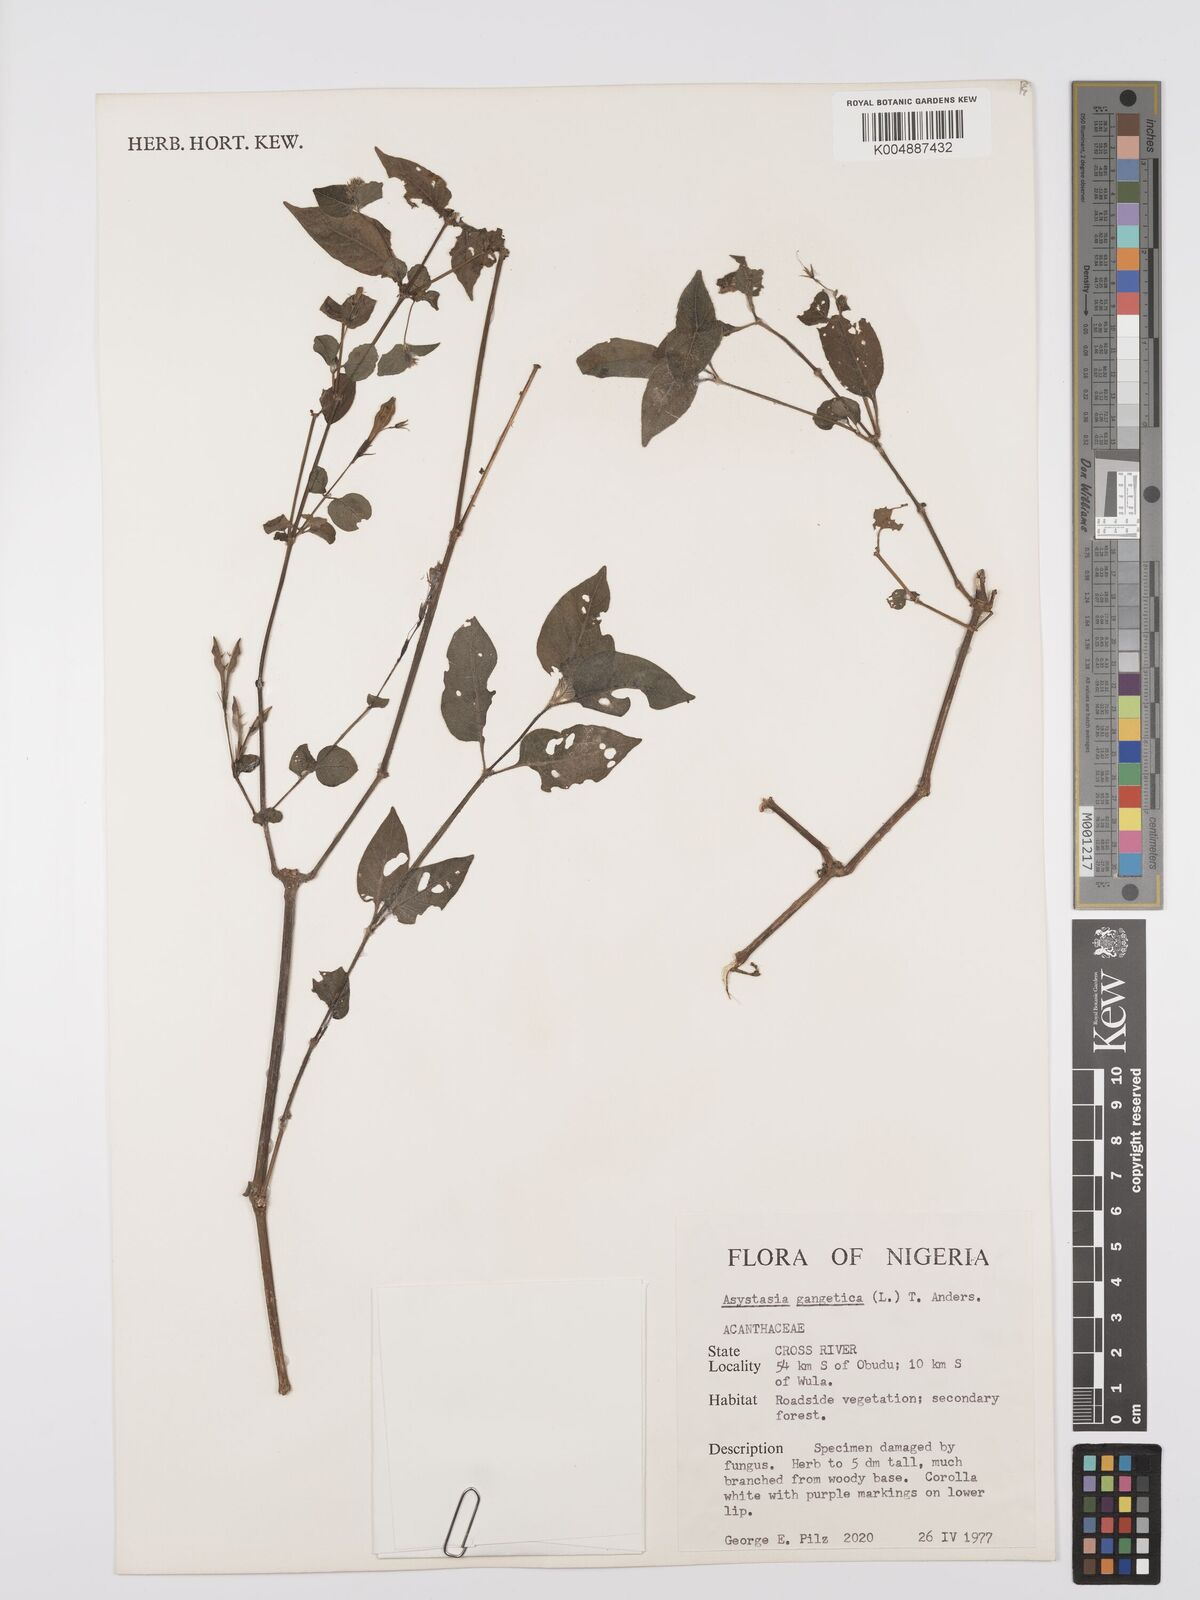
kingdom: Plantae
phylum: Tracheophyta
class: Magnoliopsida
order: Lamiales
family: Acanthaceae
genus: Asystasia
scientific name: Asystasia gangetica
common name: Chinese violet
